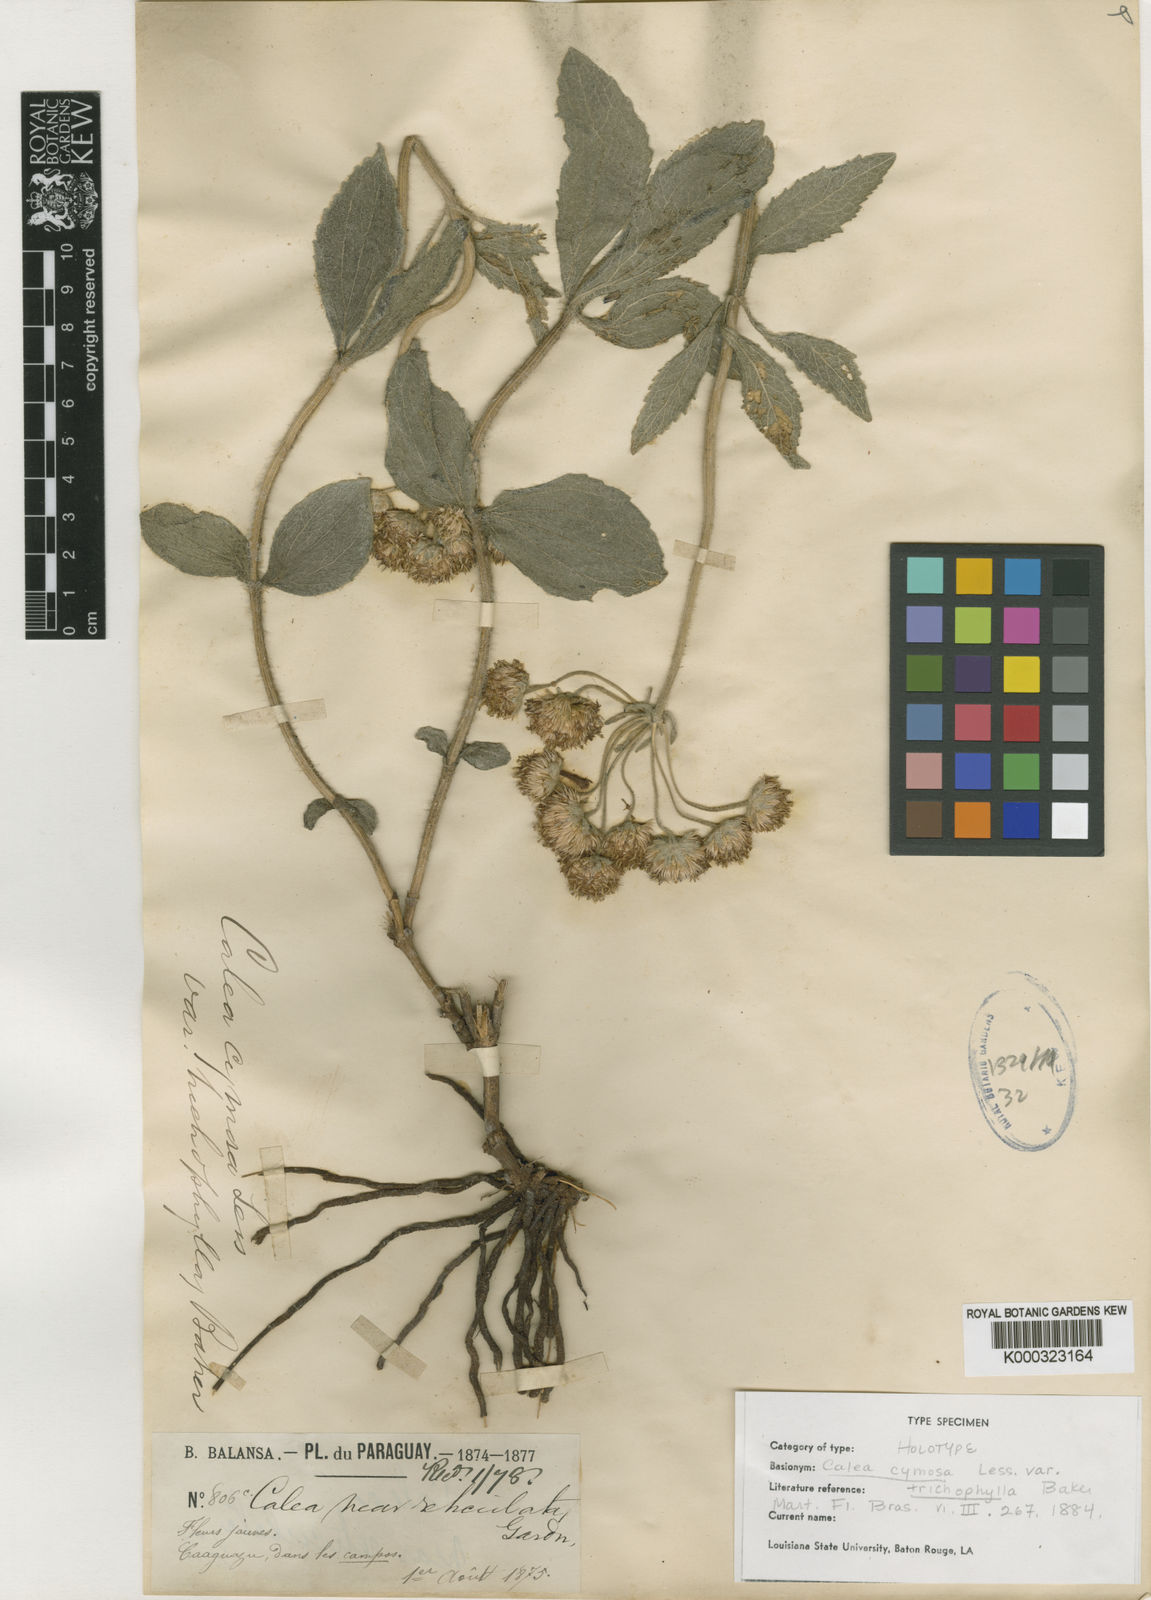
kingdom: Plantae
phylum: Tracheophyta
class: Magnoliopsida
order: Asterales
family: Asteraceae
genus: Calea
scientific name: Calea cymosa
